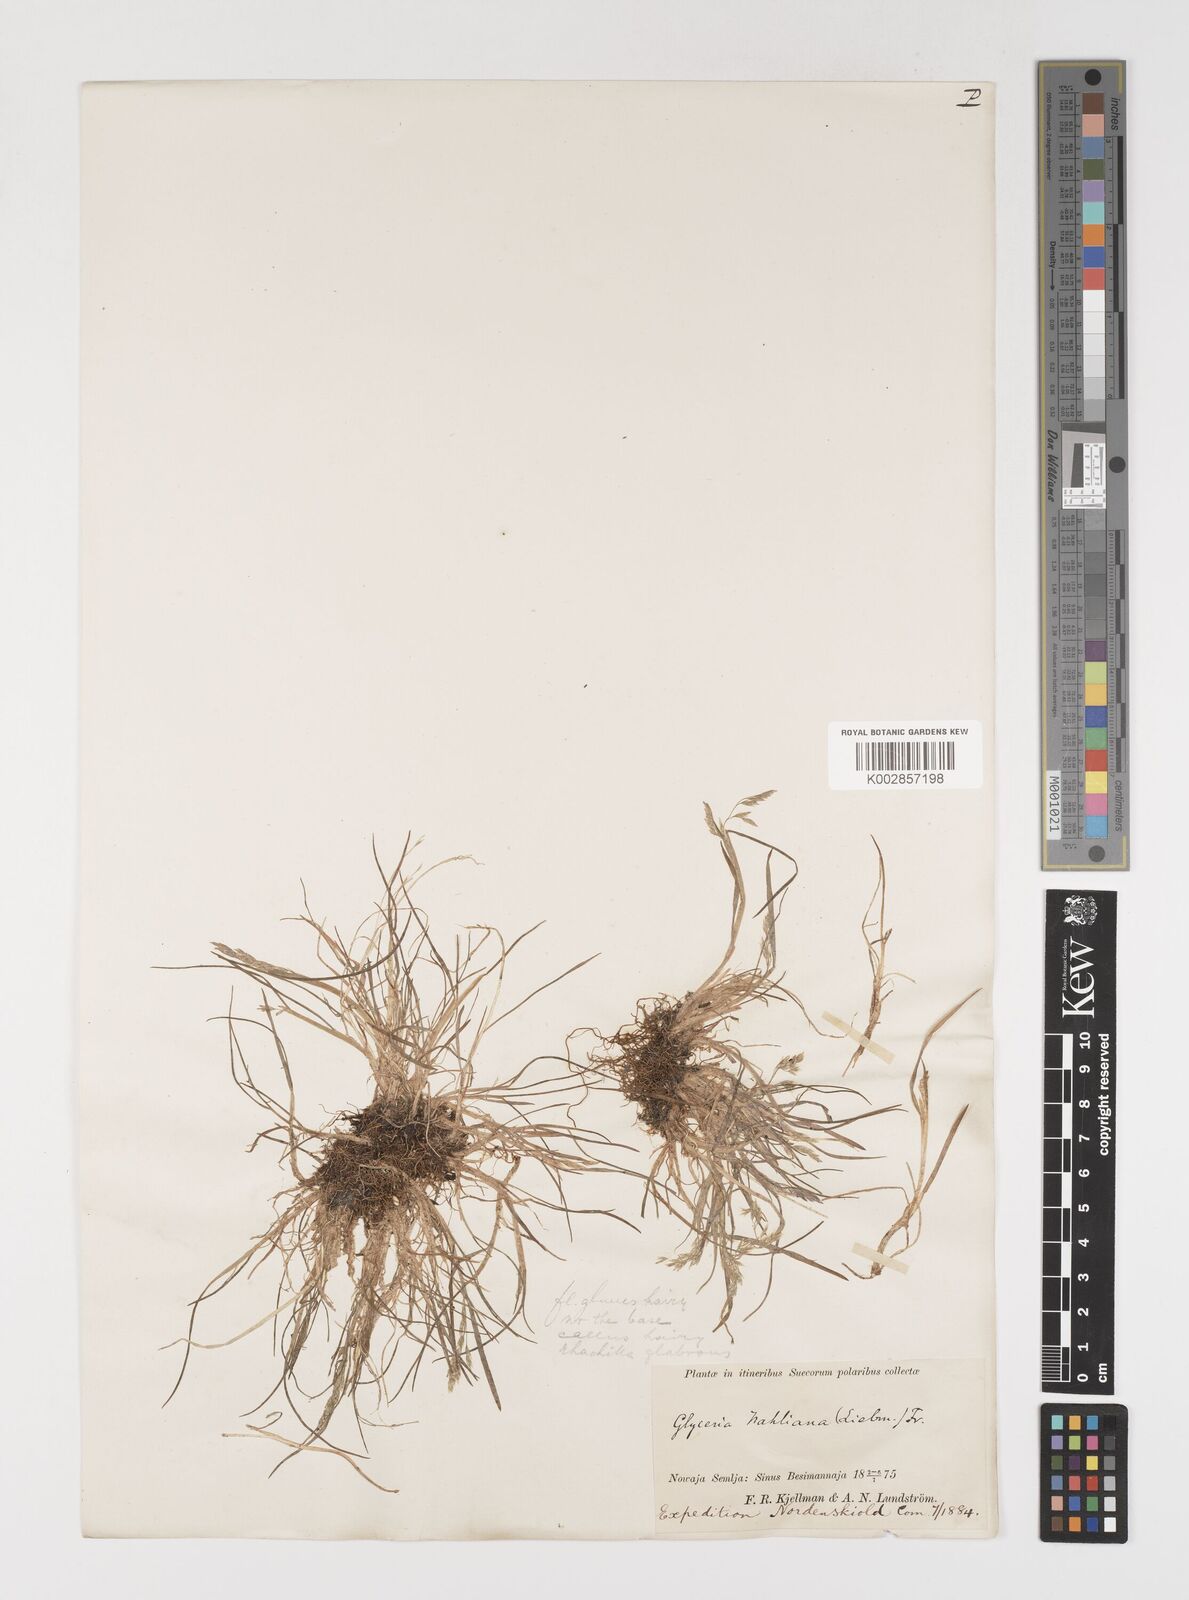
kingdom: Plantae
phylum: Tracheophyta
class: Liliopsida
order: Poales
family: Poaceae
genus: Puccinellia
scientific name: Puccinellia vahliana
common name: Vahl's alkaligrass
